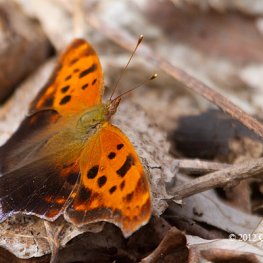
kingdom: Animalia
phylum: Arthropoda
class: Insecta
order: Lepidoptera
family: Nymphalidae
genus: Polygonia
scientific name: Polygonia interrogationis
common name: Question Mark
